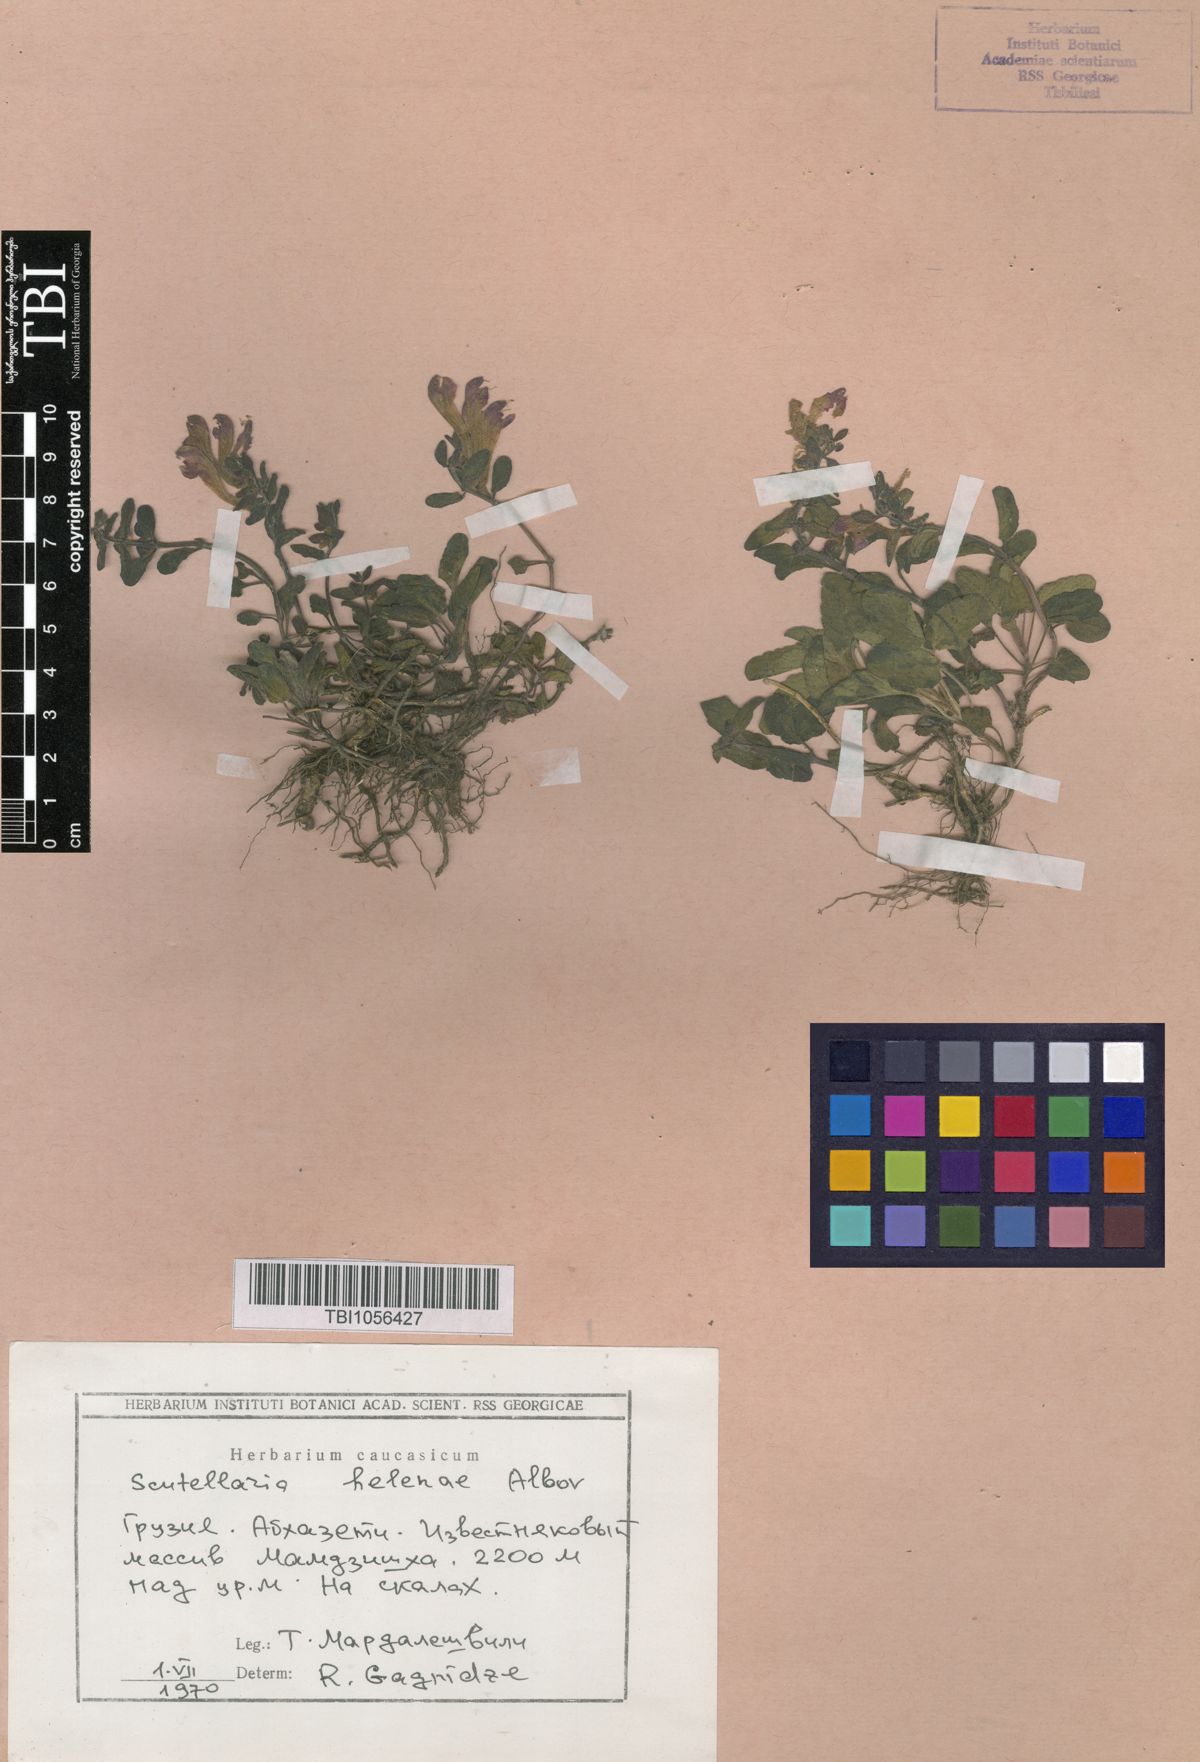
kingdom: Plantae
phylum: Tracheophyta
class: Magnoliopsida
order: Lamiales
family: Lamiaceae
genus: Scutellaria
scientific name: Scutellaria helenae
